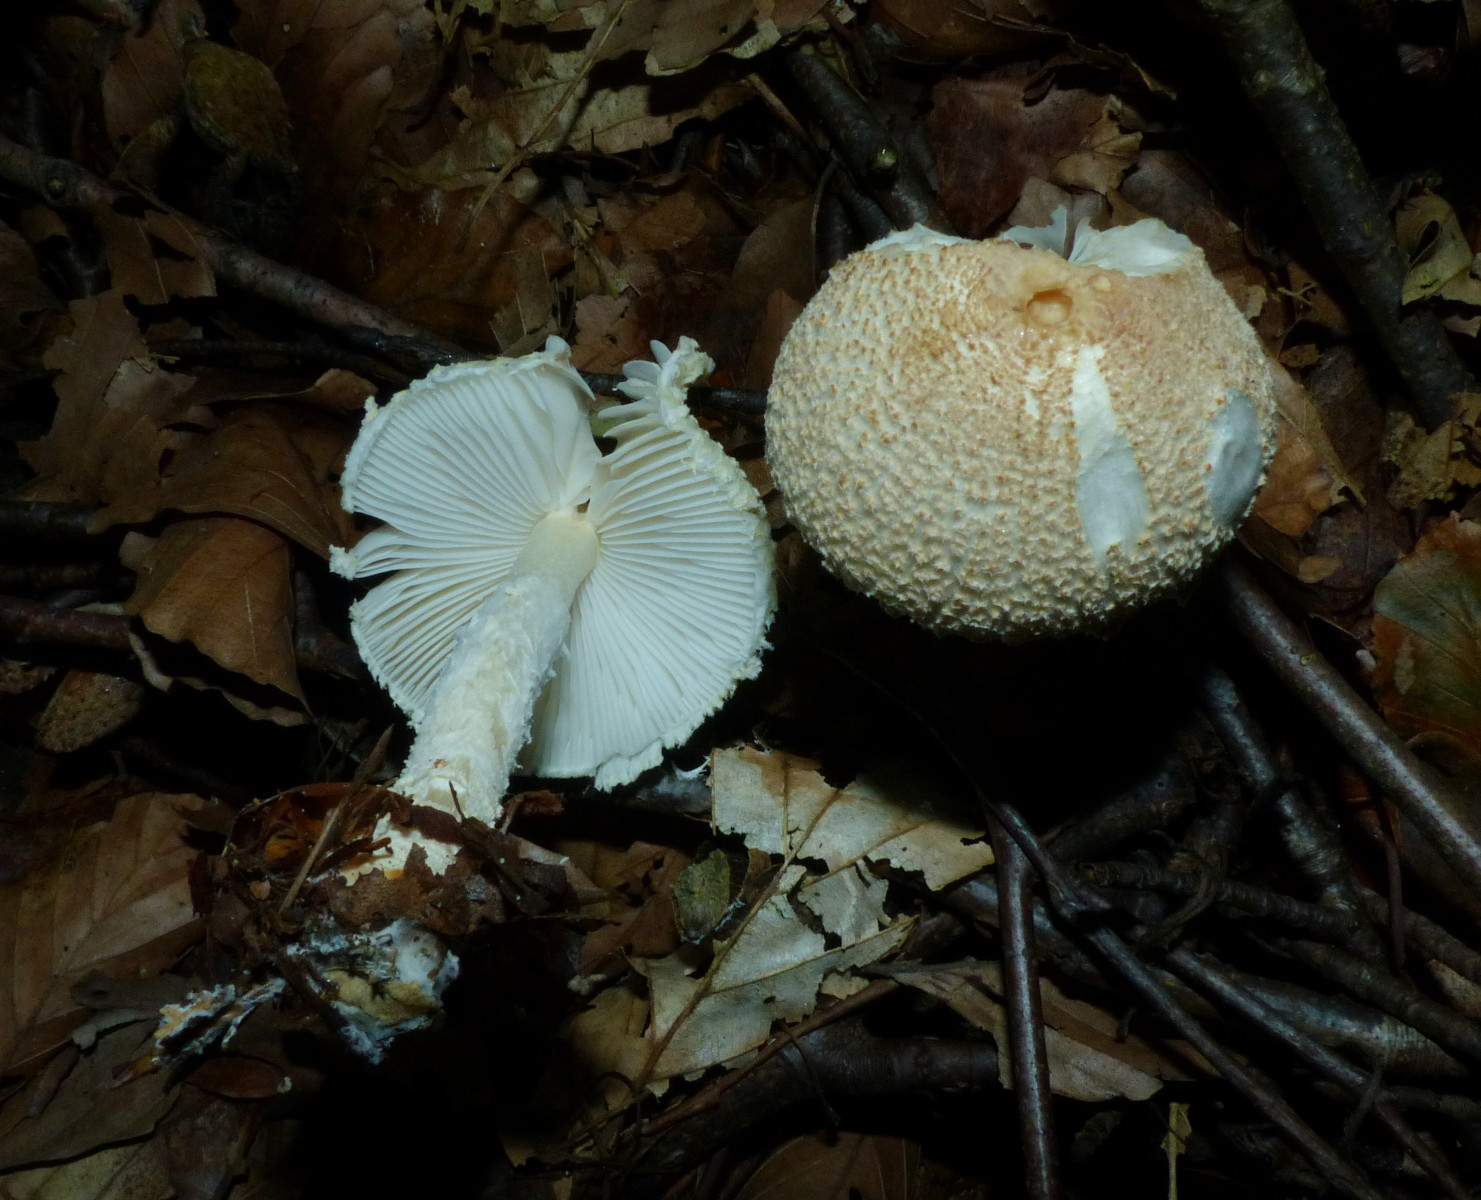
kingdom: Fungi
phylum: Basidiomycota
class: Agaricomycetes
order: Agaricales
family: Agaricaceae
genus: Lepiota
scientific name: Lepiota magnispora
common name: gulfnugget parasolhat
